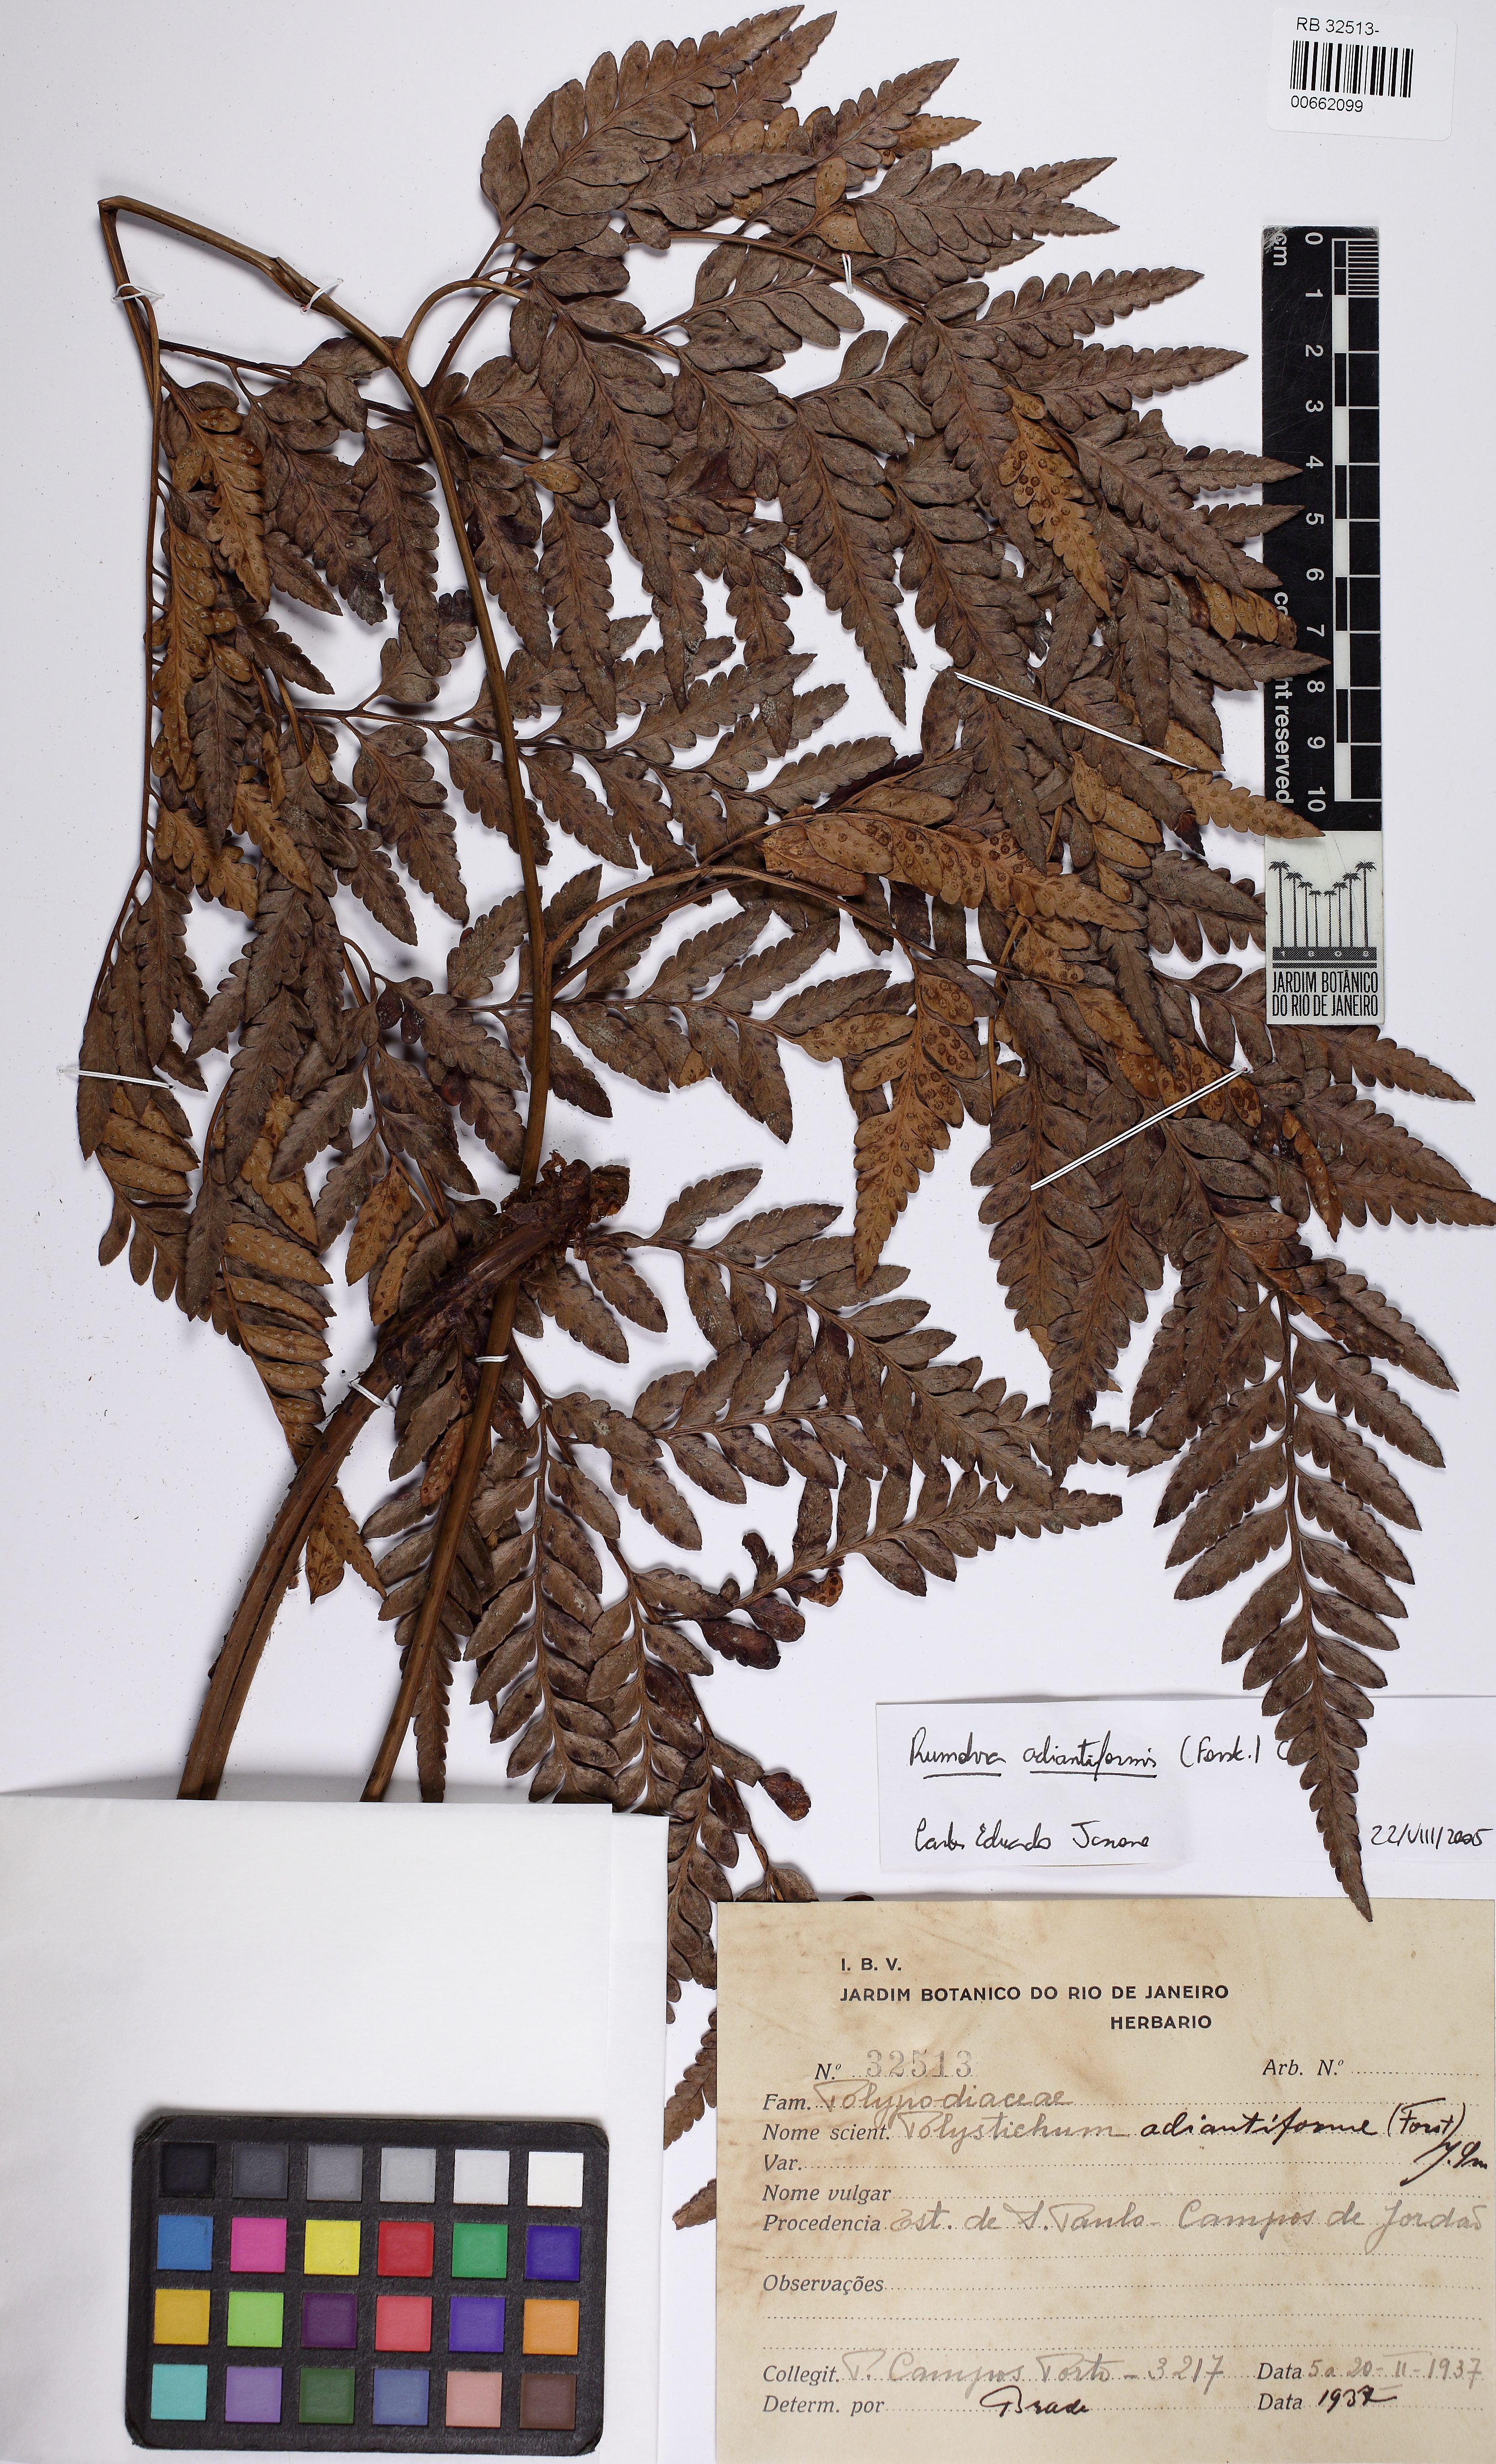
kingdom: Plantae
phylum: Tracheophyta
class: Polypodiopsida
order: Polypodiales
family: Dryopteridaceae
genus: Rumohra
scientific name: Rumohra adiantiformis
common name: Leather fern
